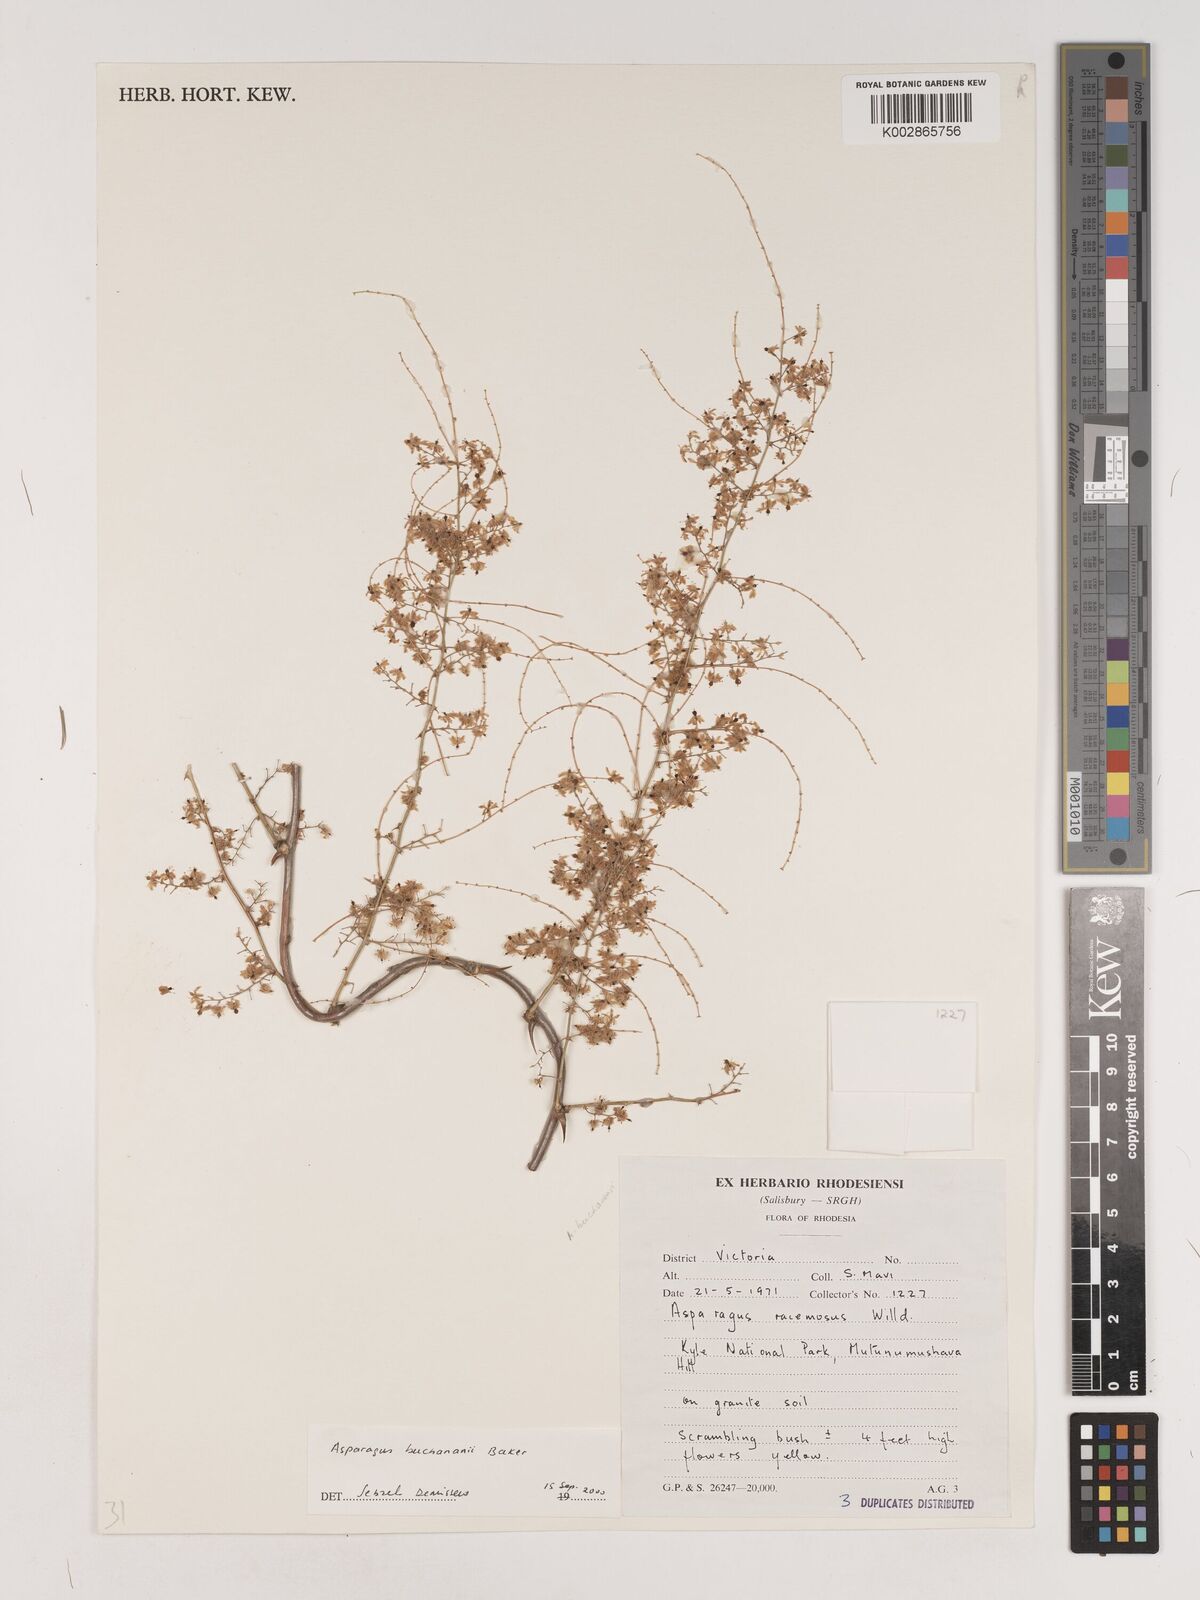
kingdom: Plantae
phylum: Tracheophyta
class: Liliopsida
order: Asparagales
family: Asparagaceae
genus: Asparagus
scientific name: Asparagus racemosus
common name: Asparagus-fern
